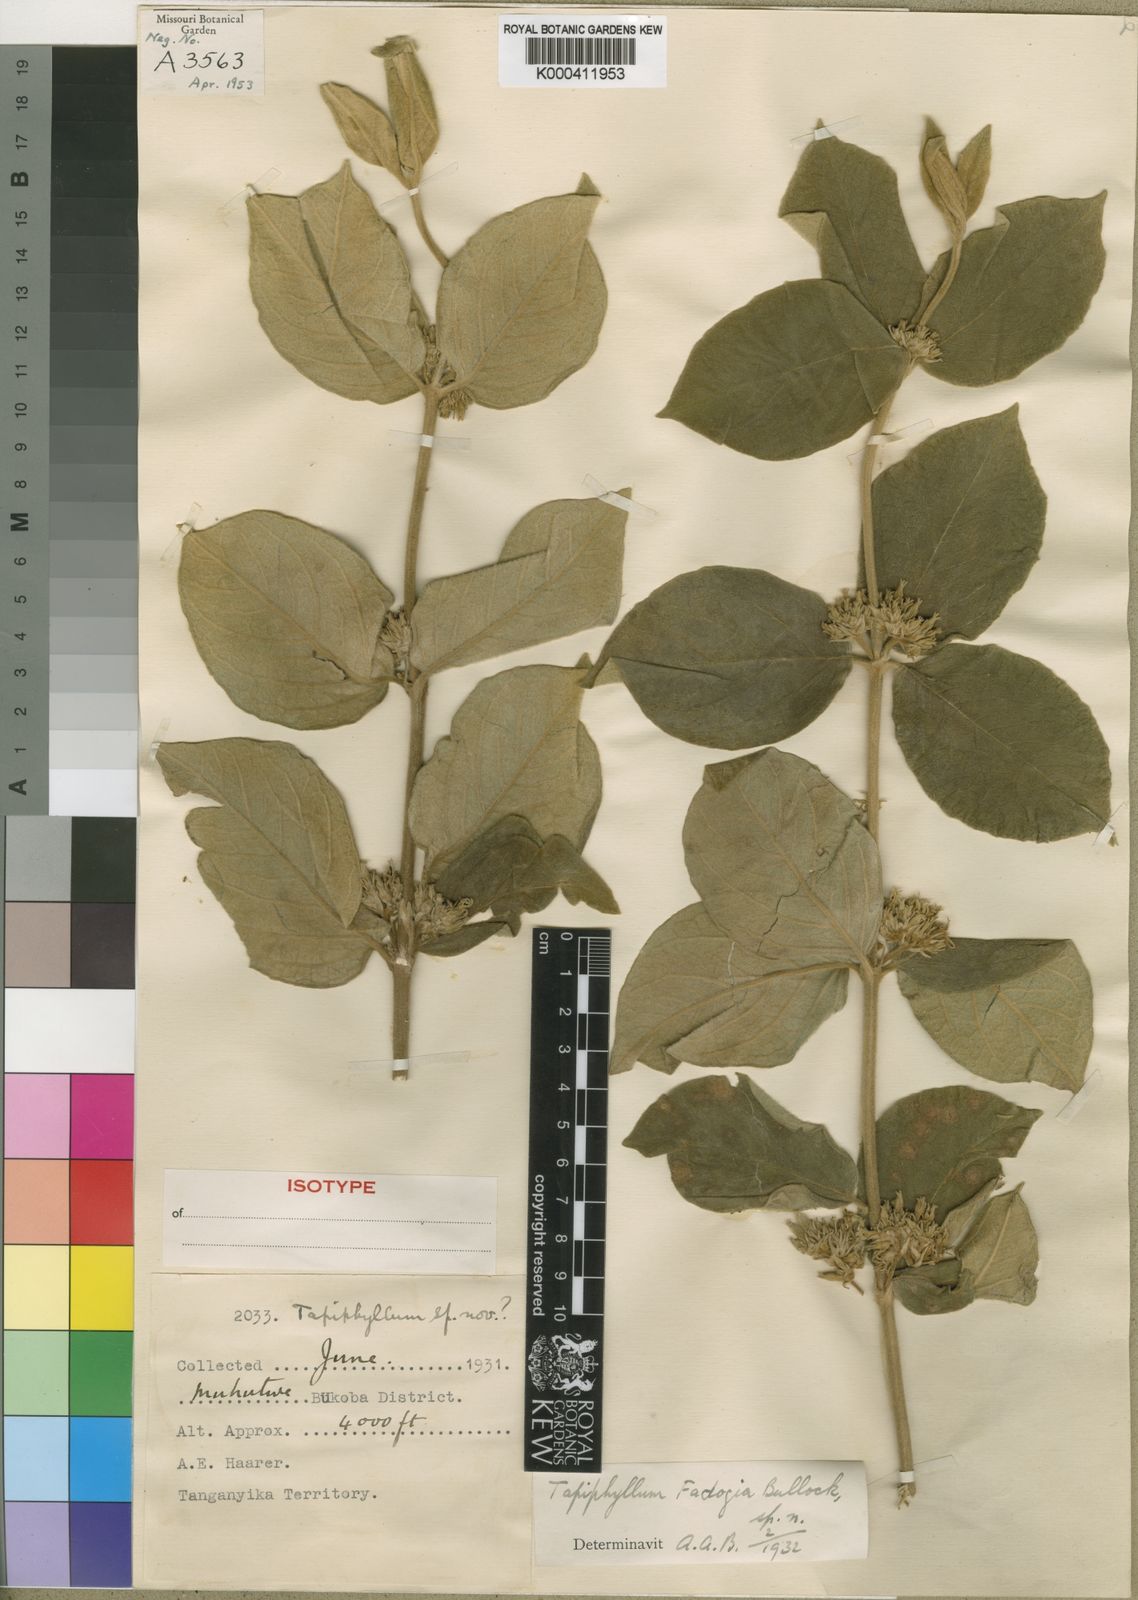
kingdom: Plantae
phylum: Tracheophyta
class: Magnoliopsida
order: Gentianales
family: Rubiaceae
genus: Vangueria
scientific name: Vangueria discolor
